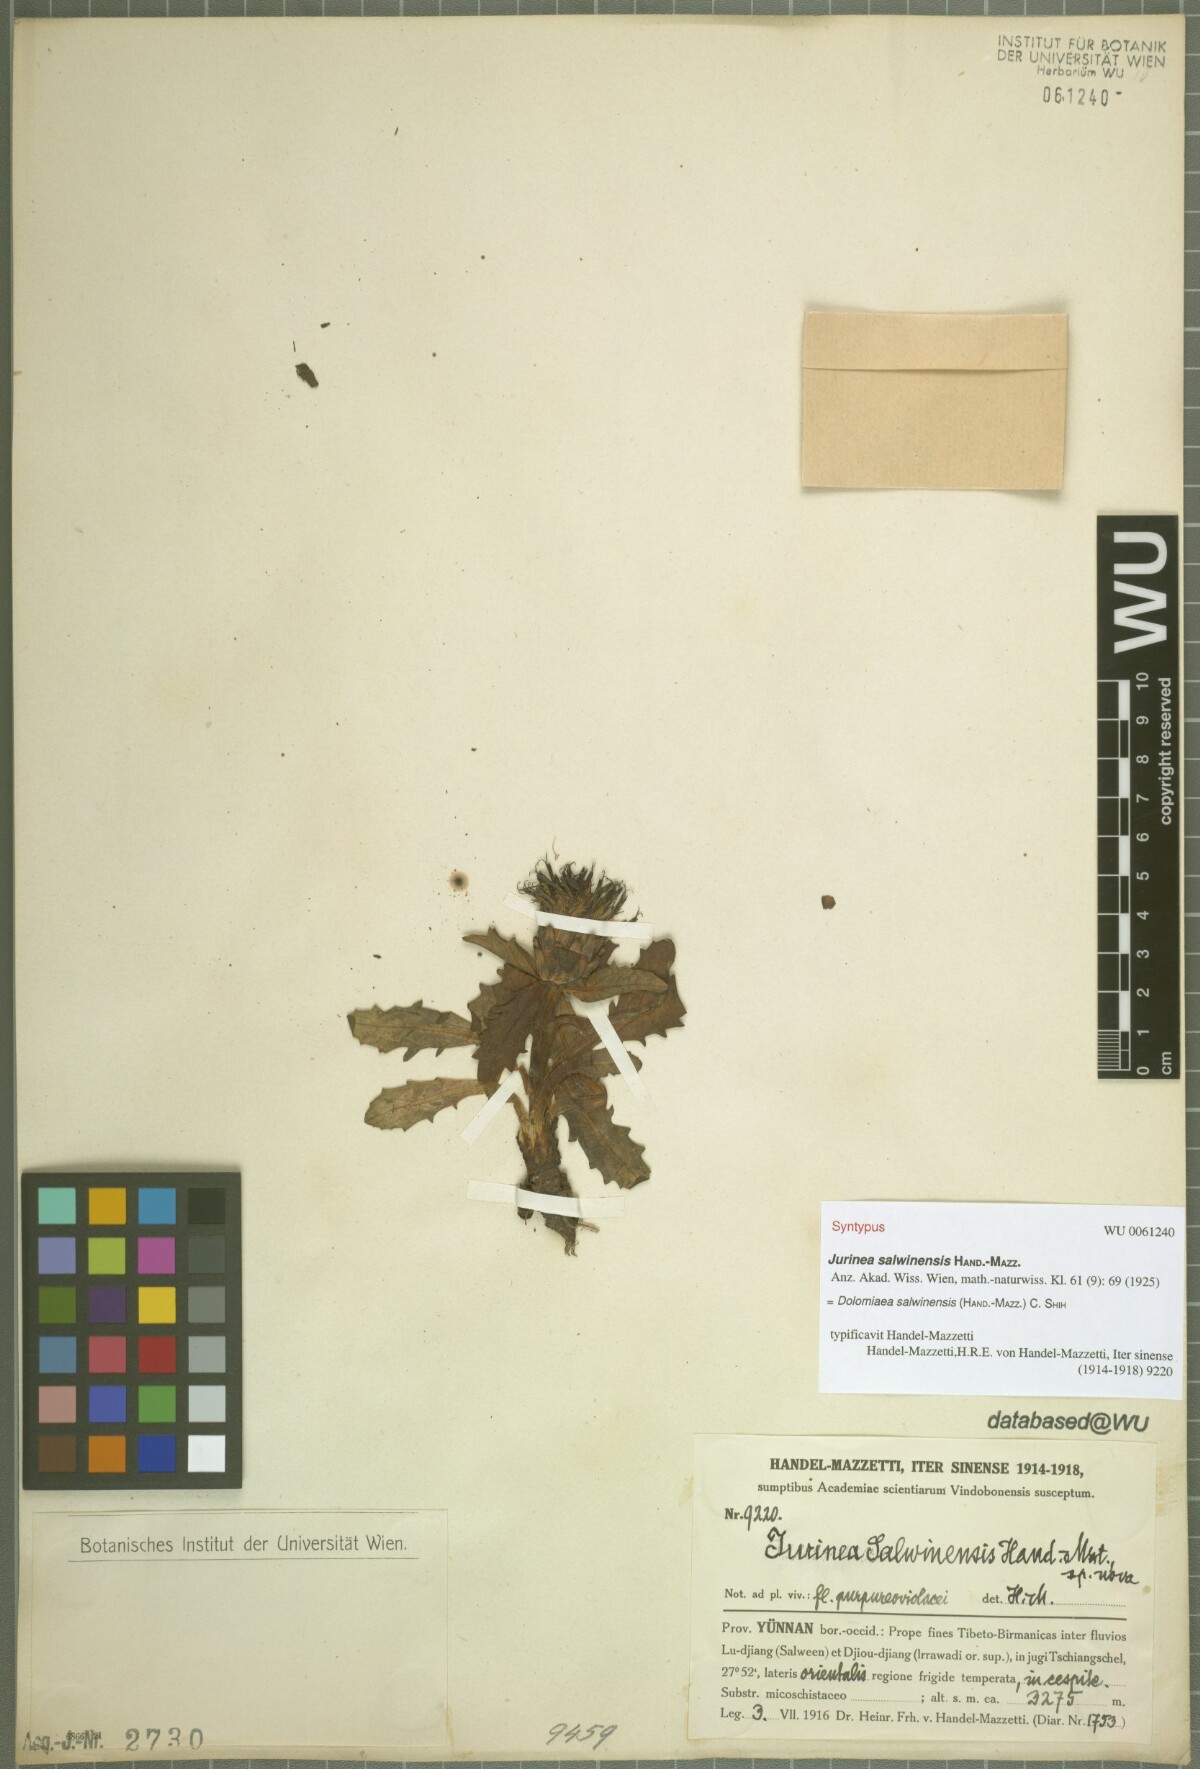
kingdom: Plantae
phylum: Tracheophyta
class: Magnoliopsida
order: Asterales
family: Asteraceae
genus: Dolomiaea
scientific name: Dolomiaea salwinensis
